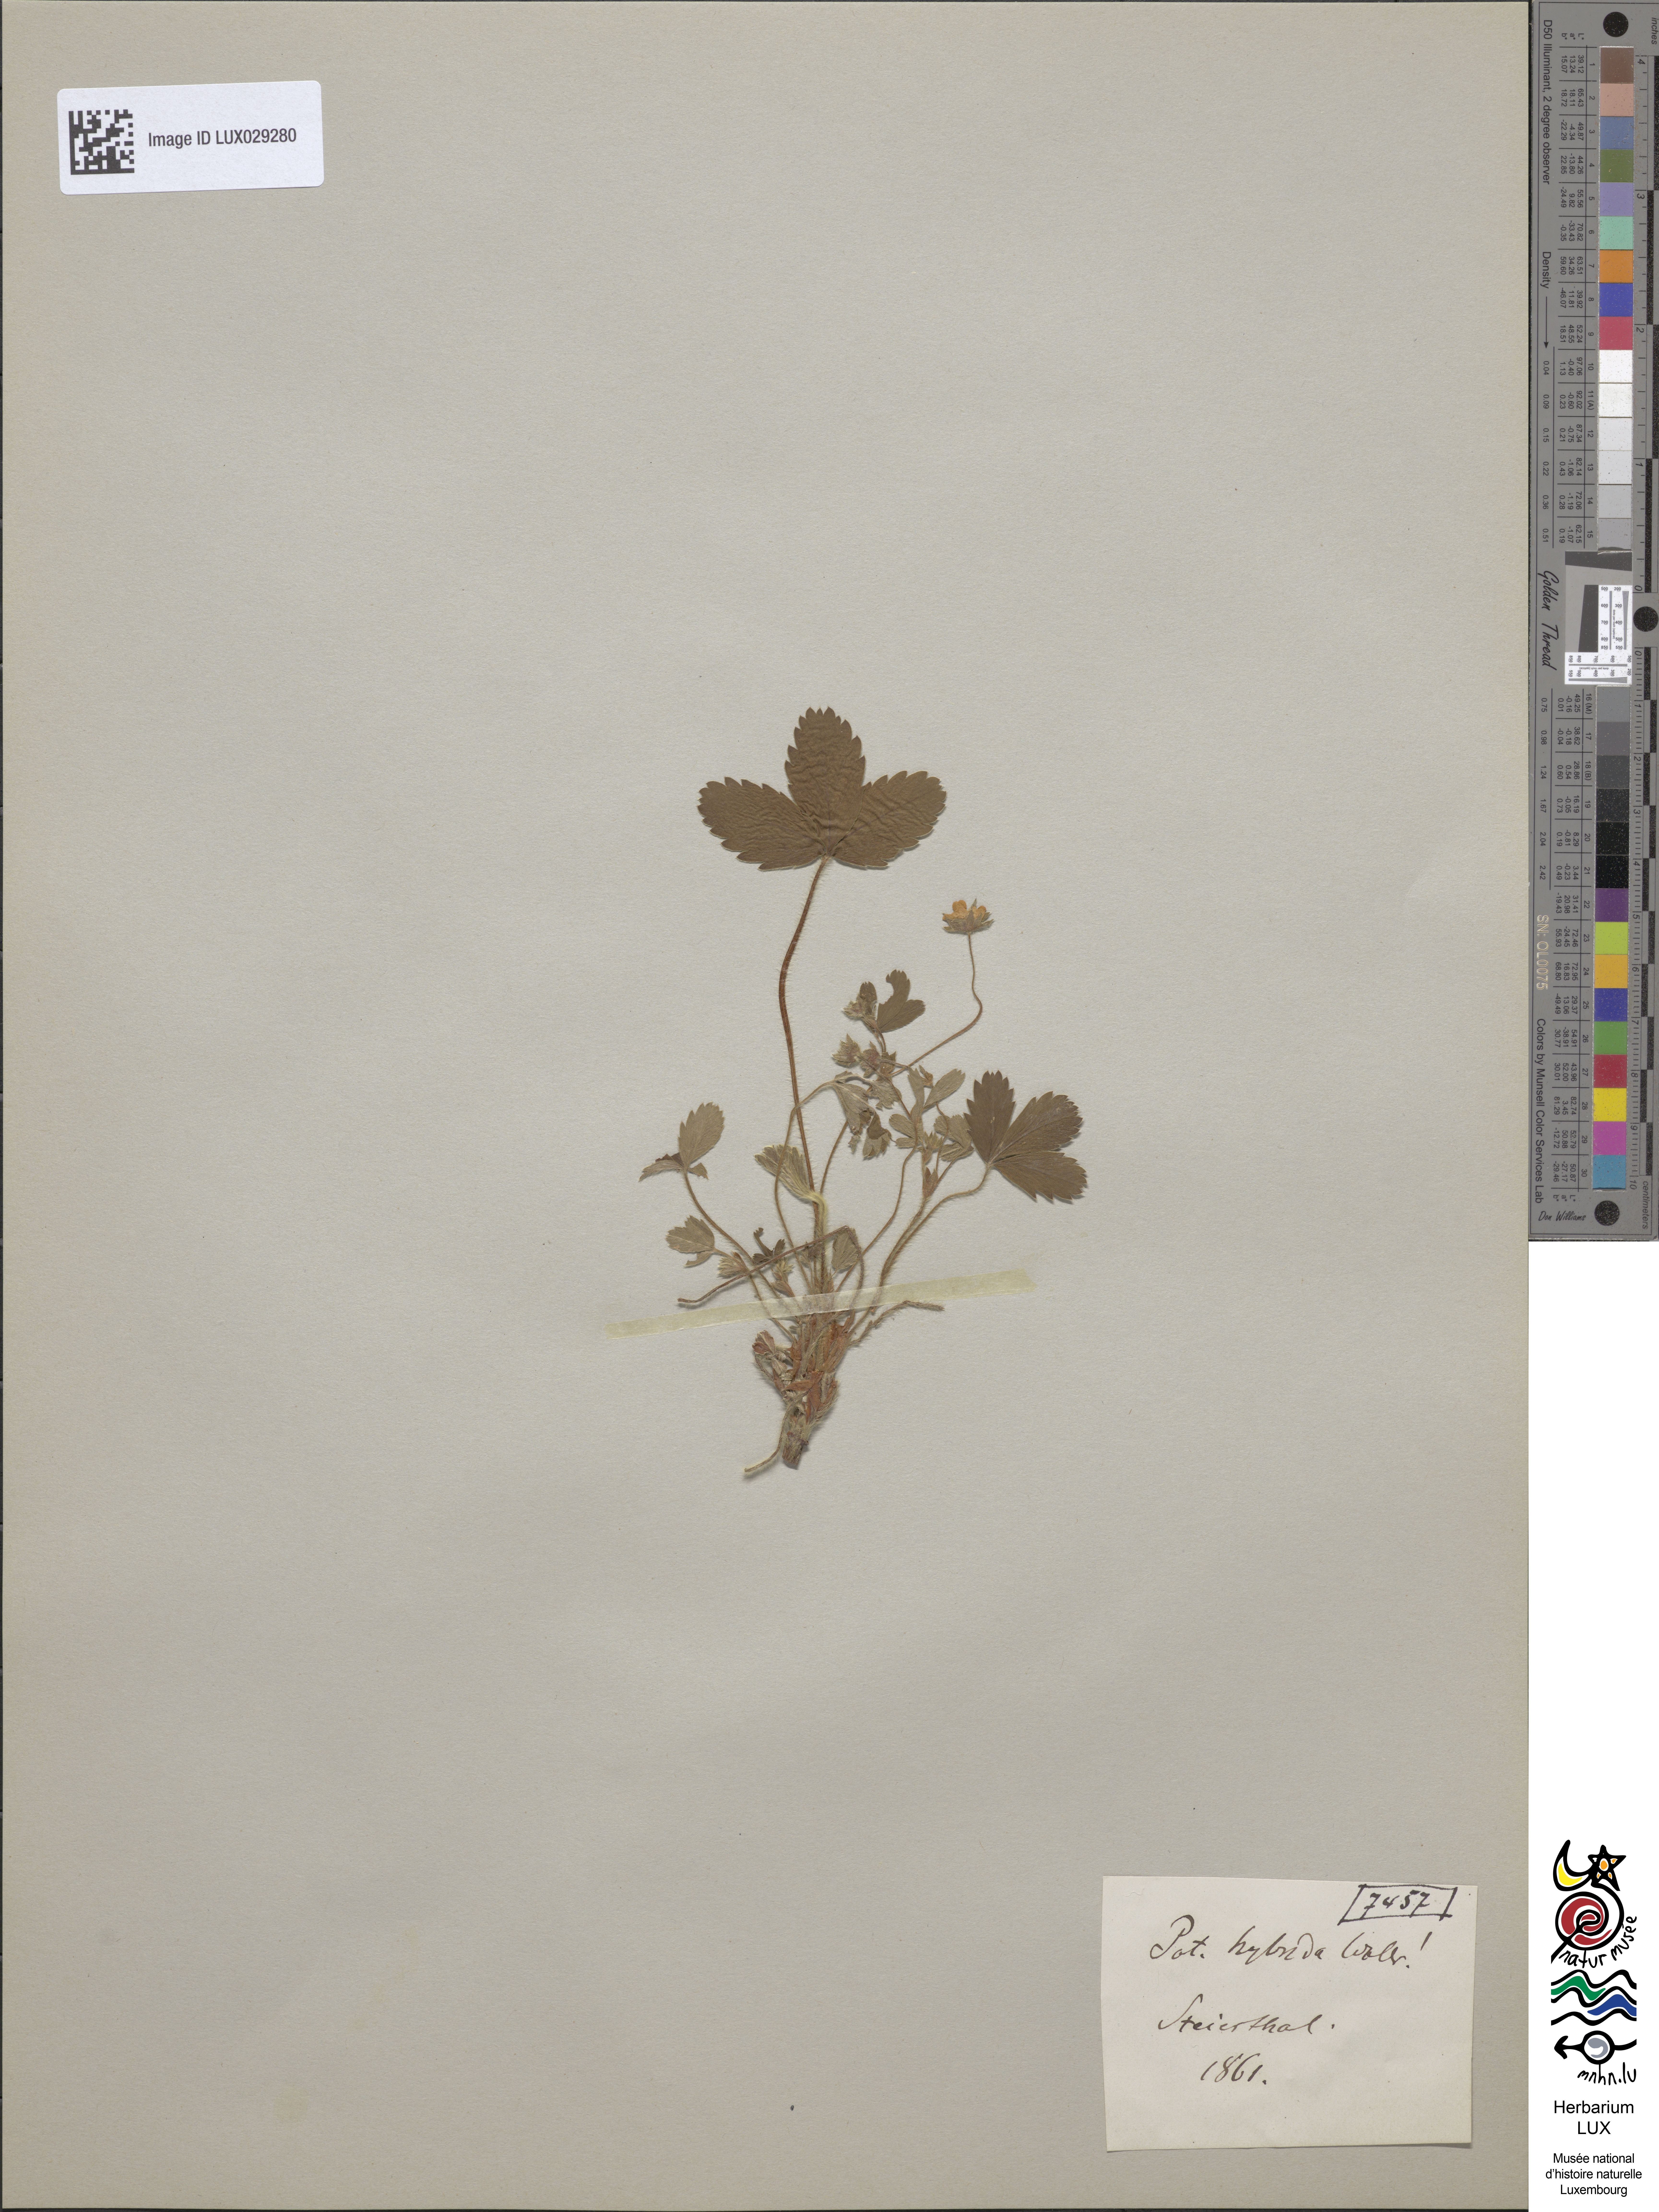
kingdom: Plantae
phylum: Tracheophyta
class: Magnoliopsida
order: Rosales
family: Rosaceae
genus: Potentilla
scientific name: Potentilla splendens
